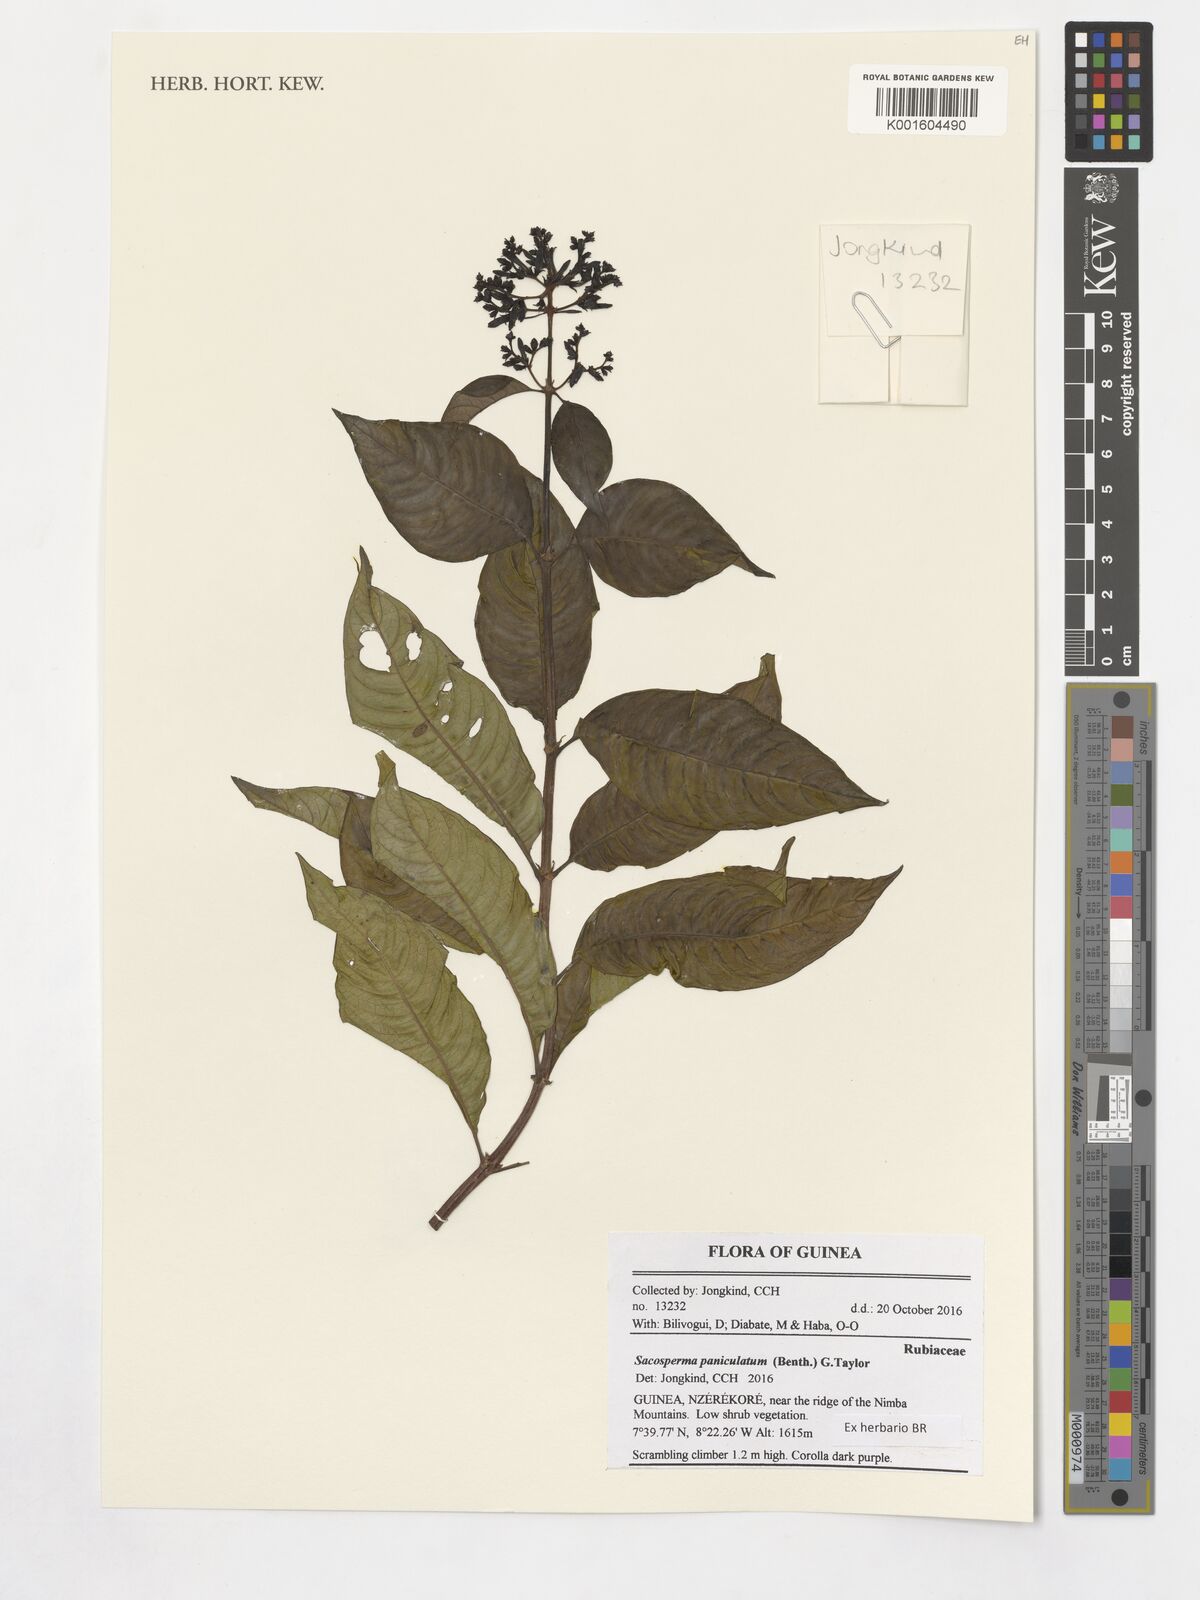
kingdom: Plantae
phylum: Tracheophyta
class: Magnoliopsida
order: Gentianales
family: Rubiaceae
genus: Sacosperma
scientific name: Sacosperma paniculatum
